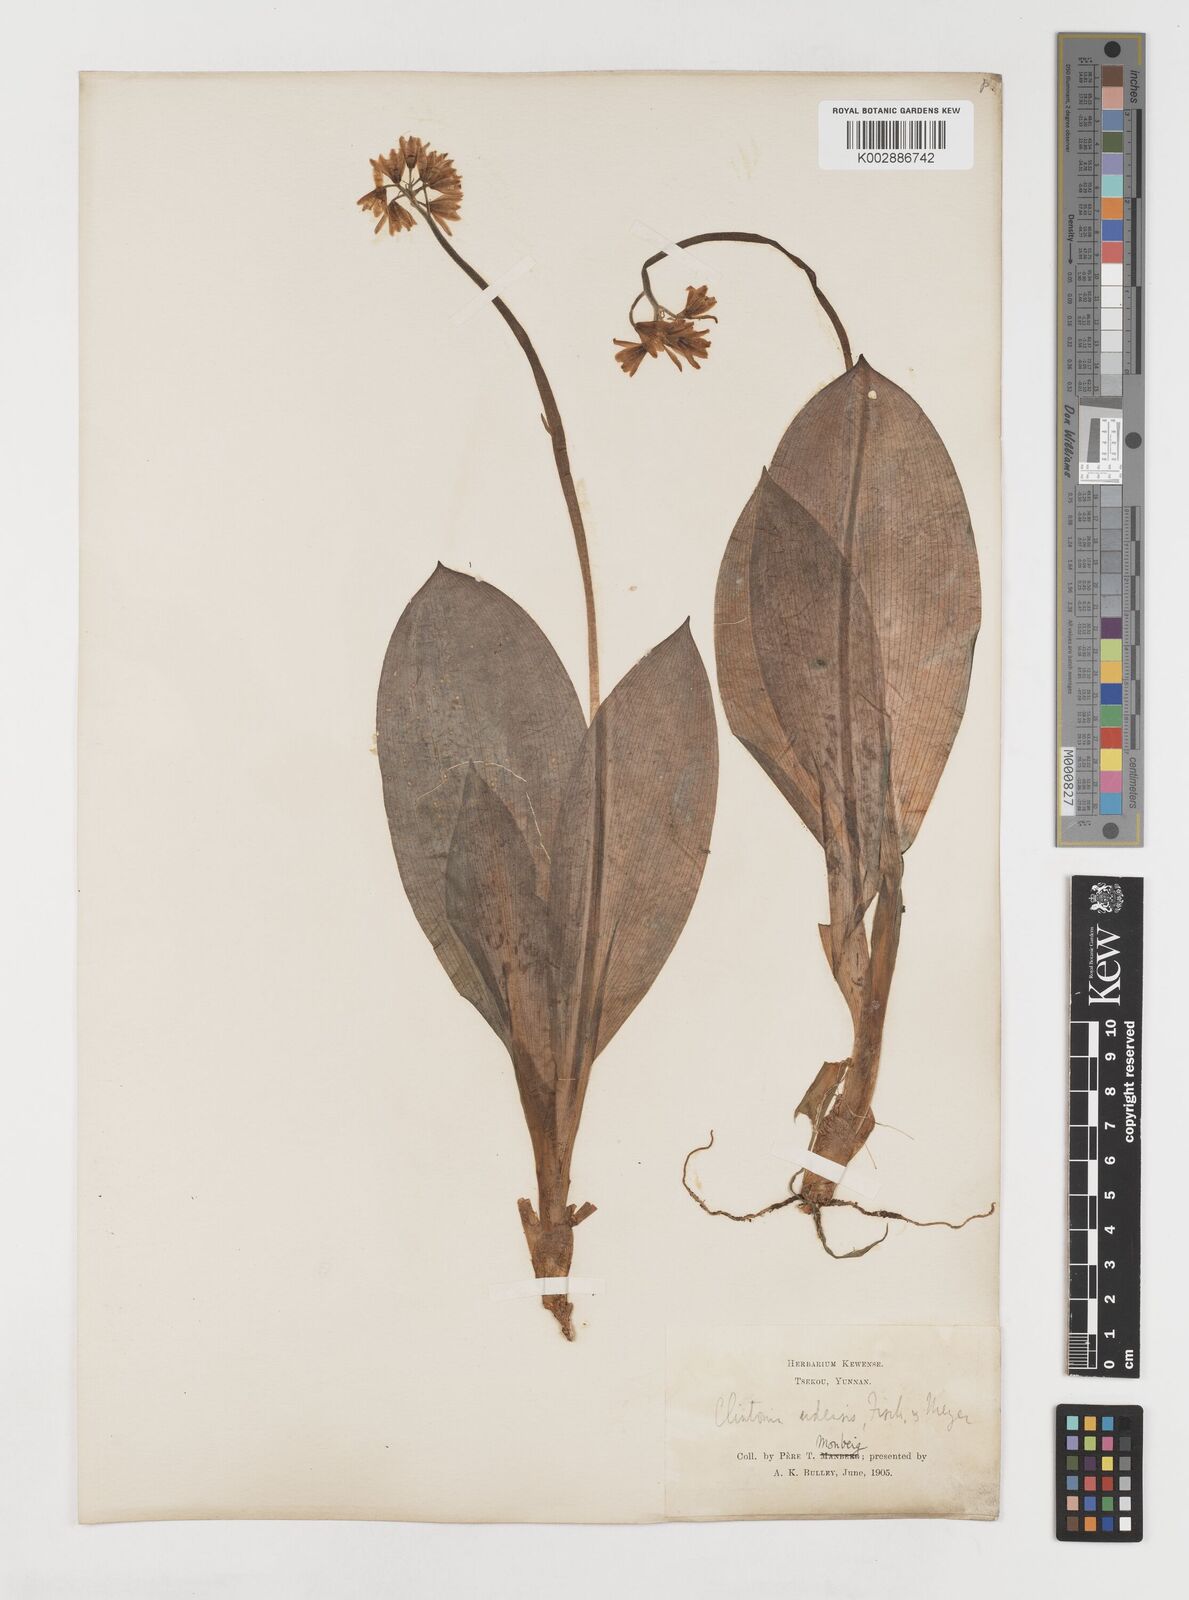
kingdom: Plantae
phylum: Tracheophyta
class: Liliopsida
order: Liliales
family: Liliaceae
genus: Clintonia
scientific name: Clintonia udensis
